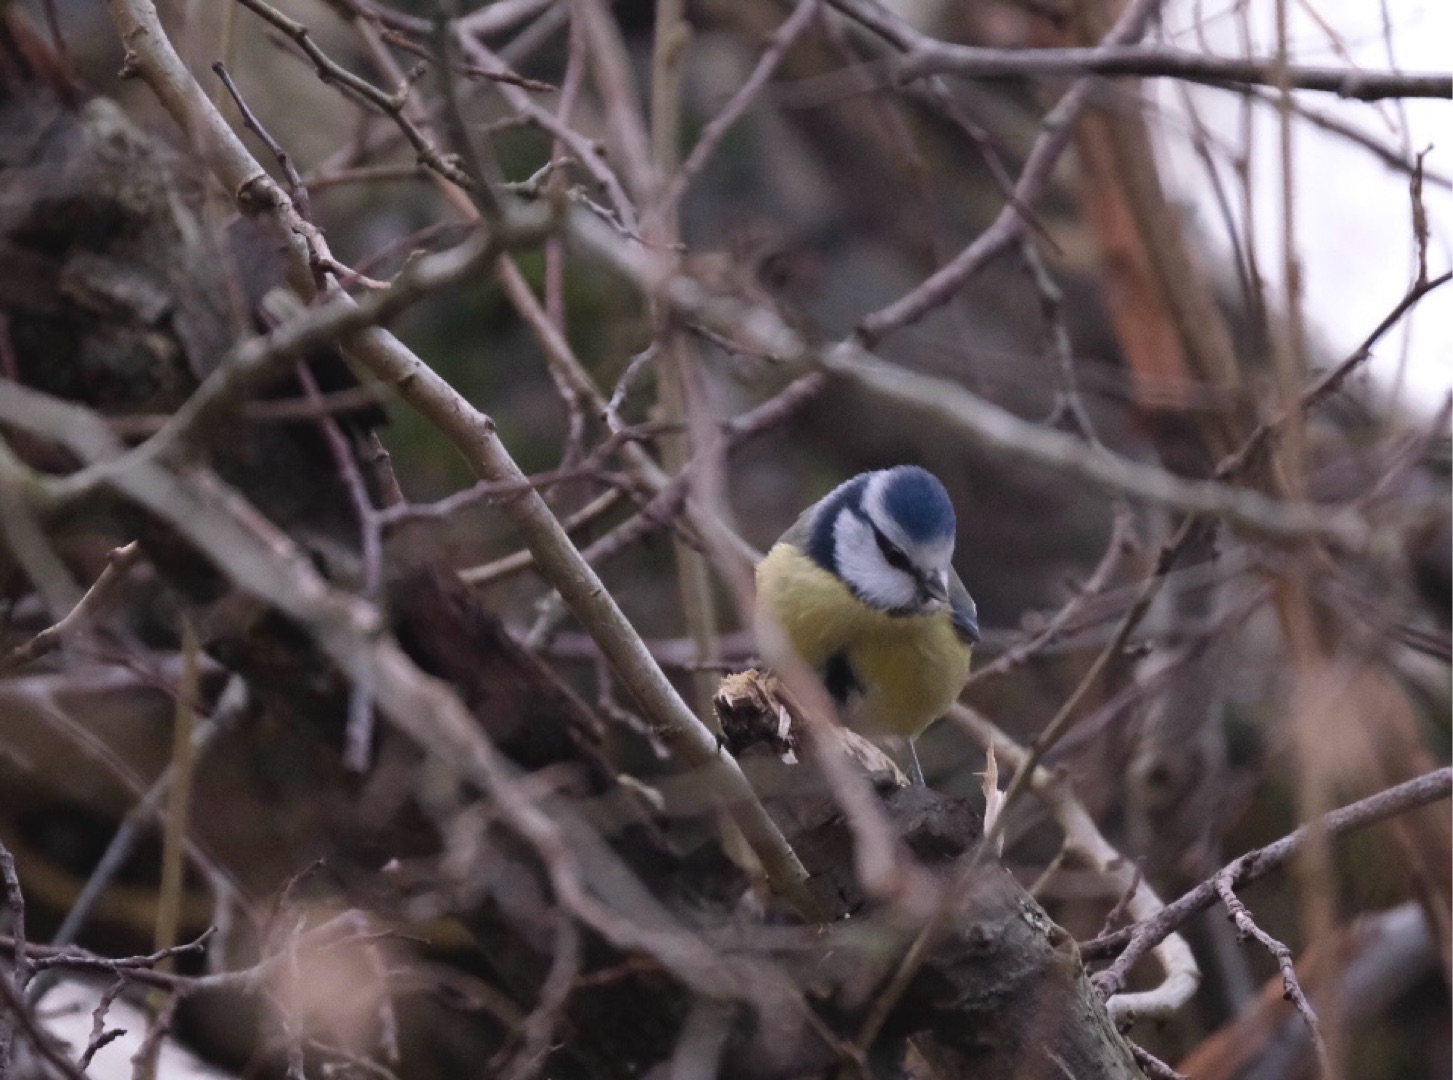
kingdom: Animalia
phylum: Chordata
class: Aves
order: Passeriformes
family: Paridae
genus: Cyanistes
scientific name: Cyanistes caeruleus
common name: Blåmejse
